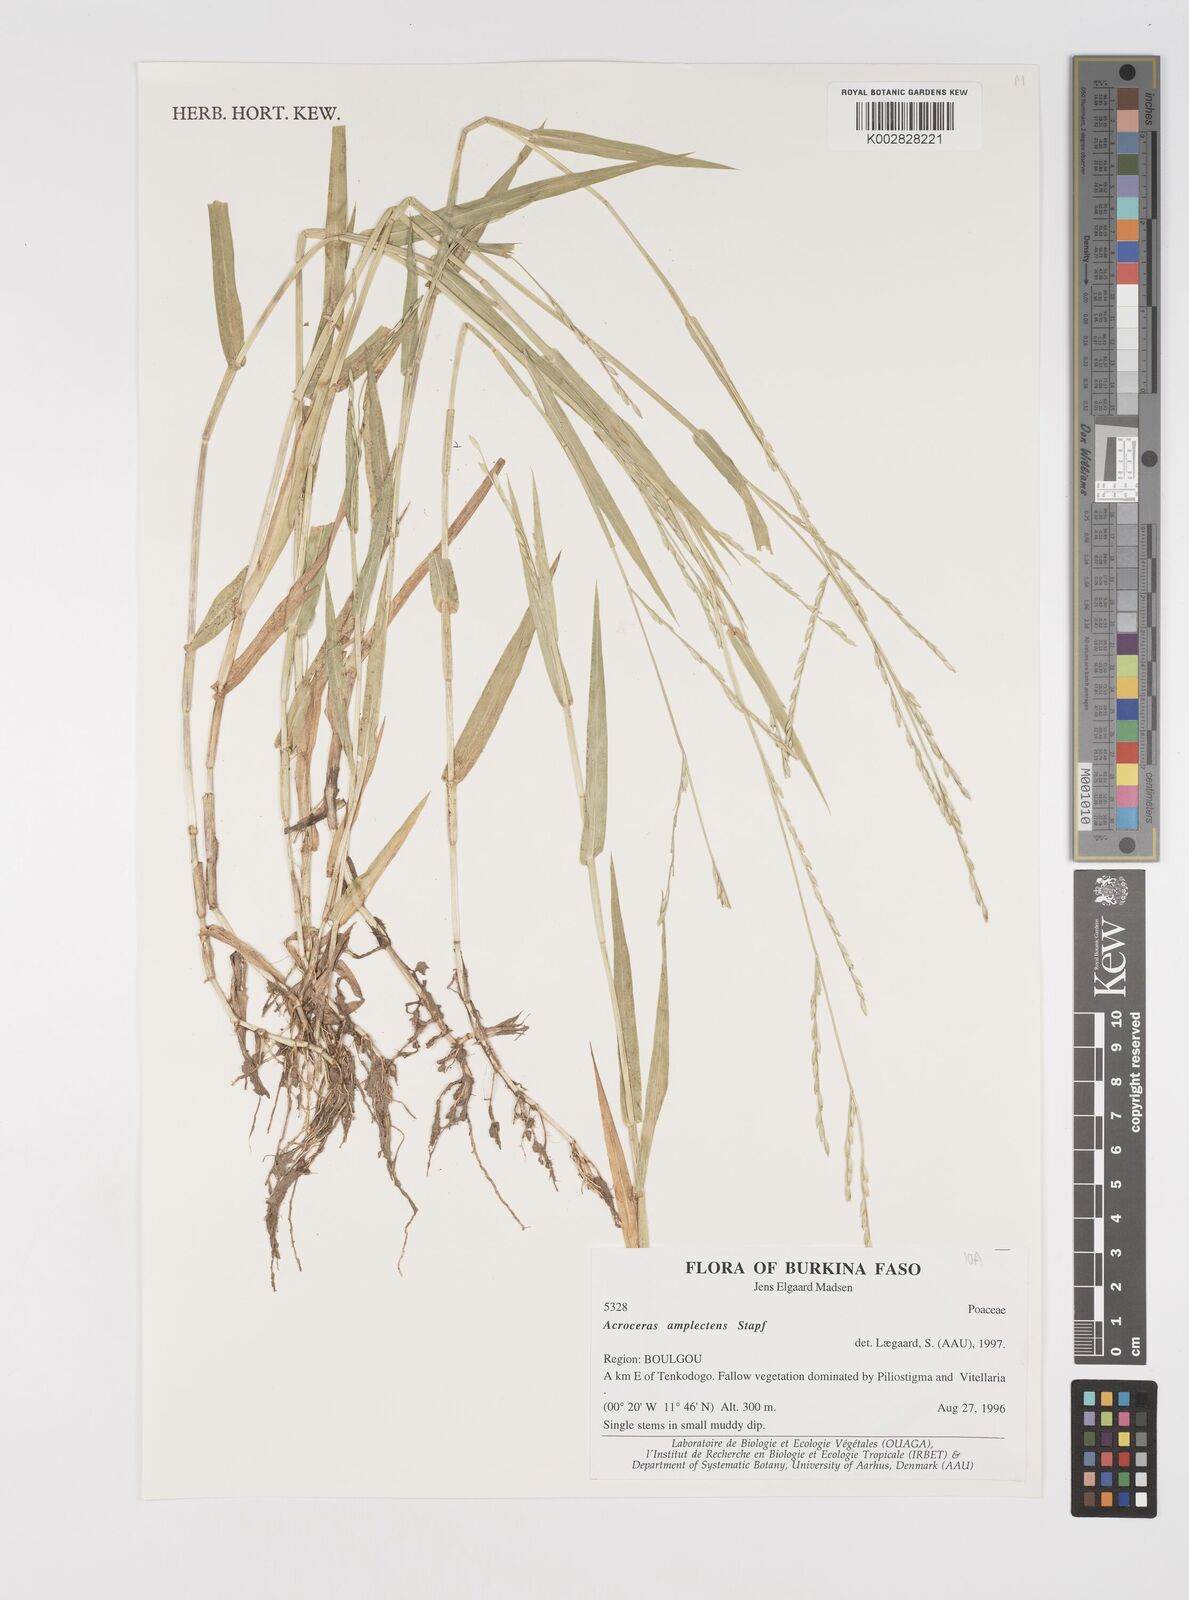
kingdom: Plantae
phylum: Tracheophyta
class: Liliopsida
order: Poales
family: Poaceae
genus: Acroceras
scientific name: Acroceras amplectens
